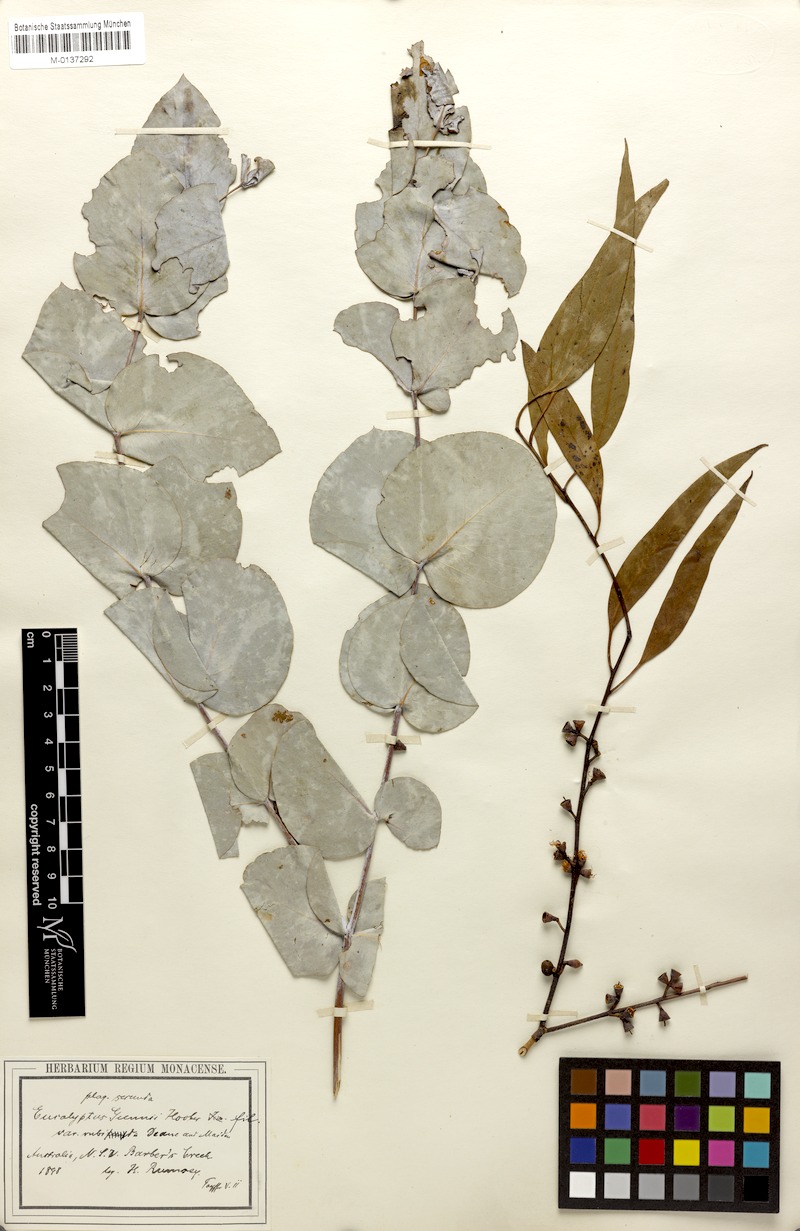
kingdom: Plantae
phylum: Tracheophyta
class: Magnoliopsida
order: Myrtales
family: Myrtaceae
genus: Eucalyptus
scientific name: Eucalyptus rubida
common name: Candlebark
